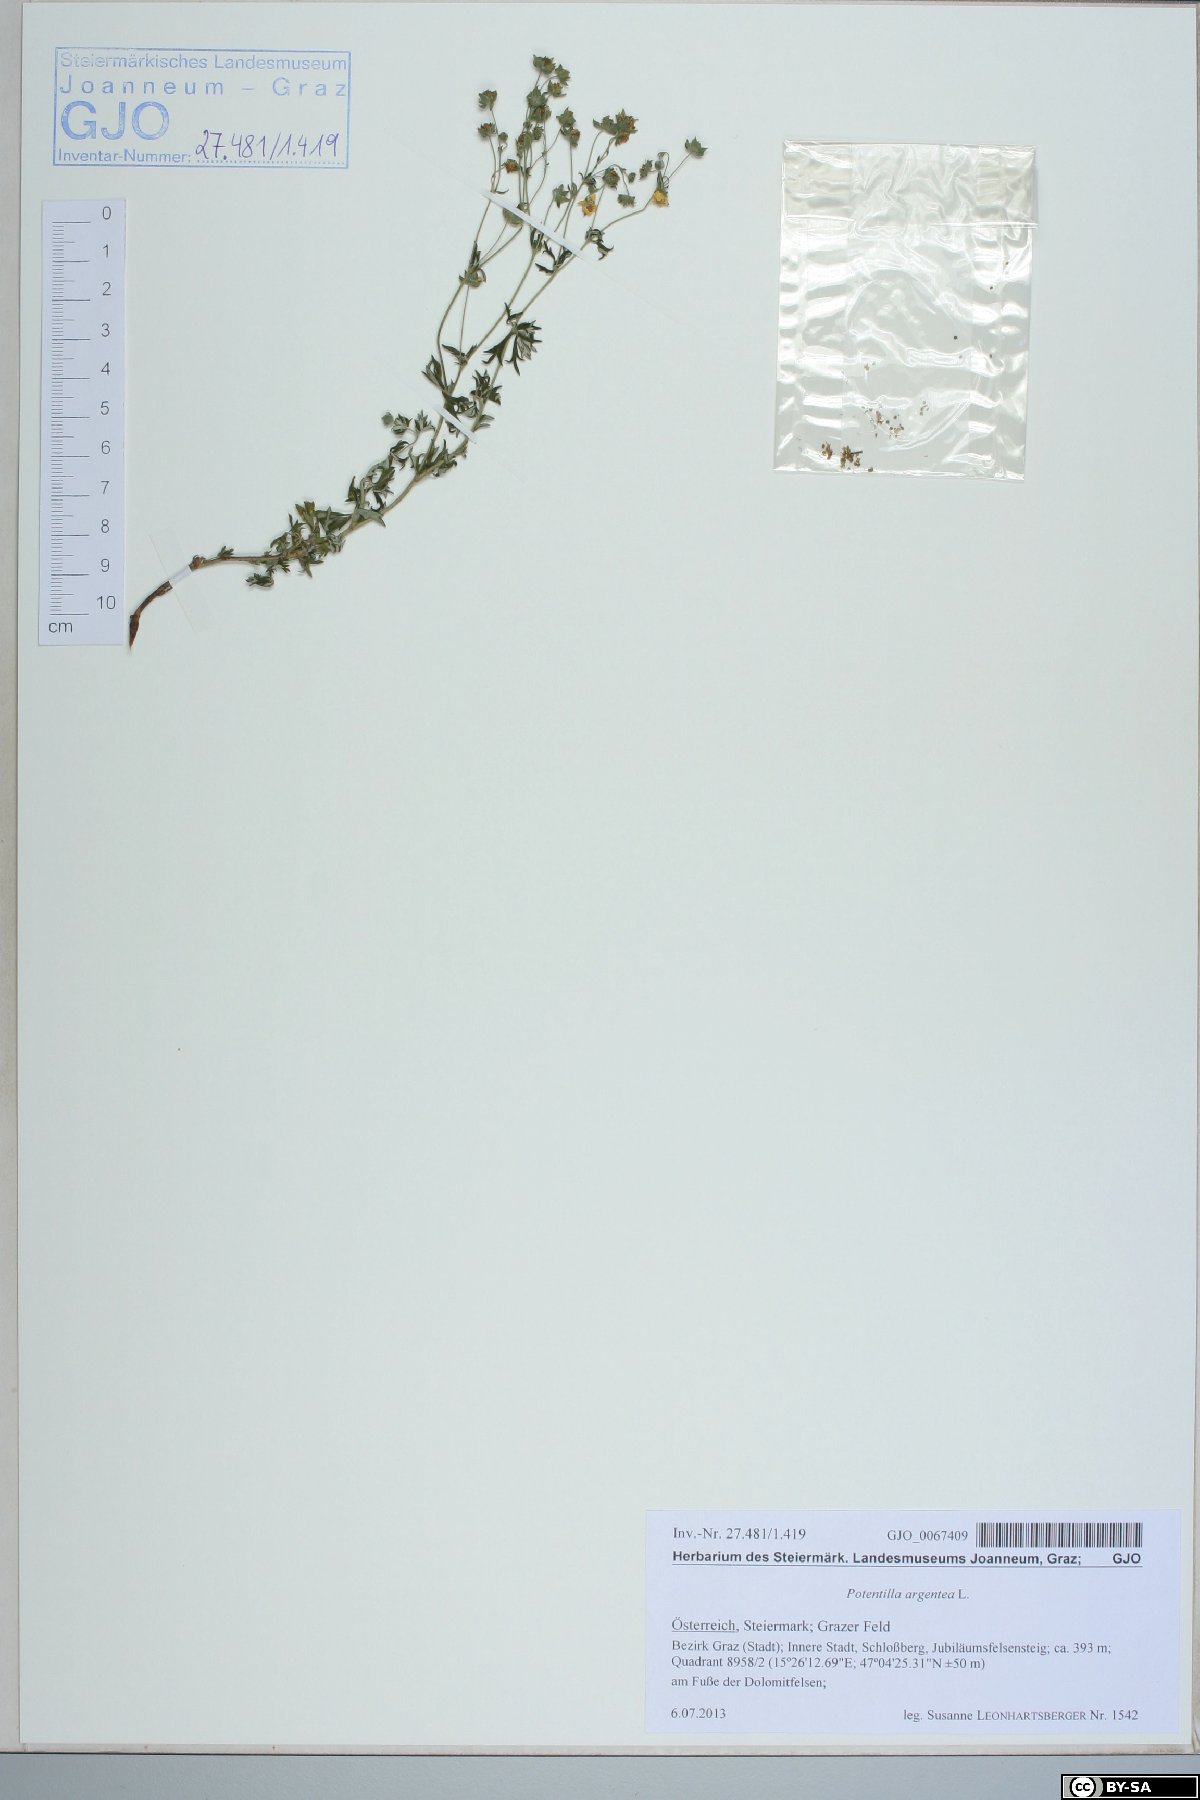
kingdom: Plantae
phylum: Tracheophyta
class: Magnoliopsida
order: Rosales
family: Rosaceae
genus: Potentilla
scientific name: Potentilla argentea
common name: Hoary cinquefoil
